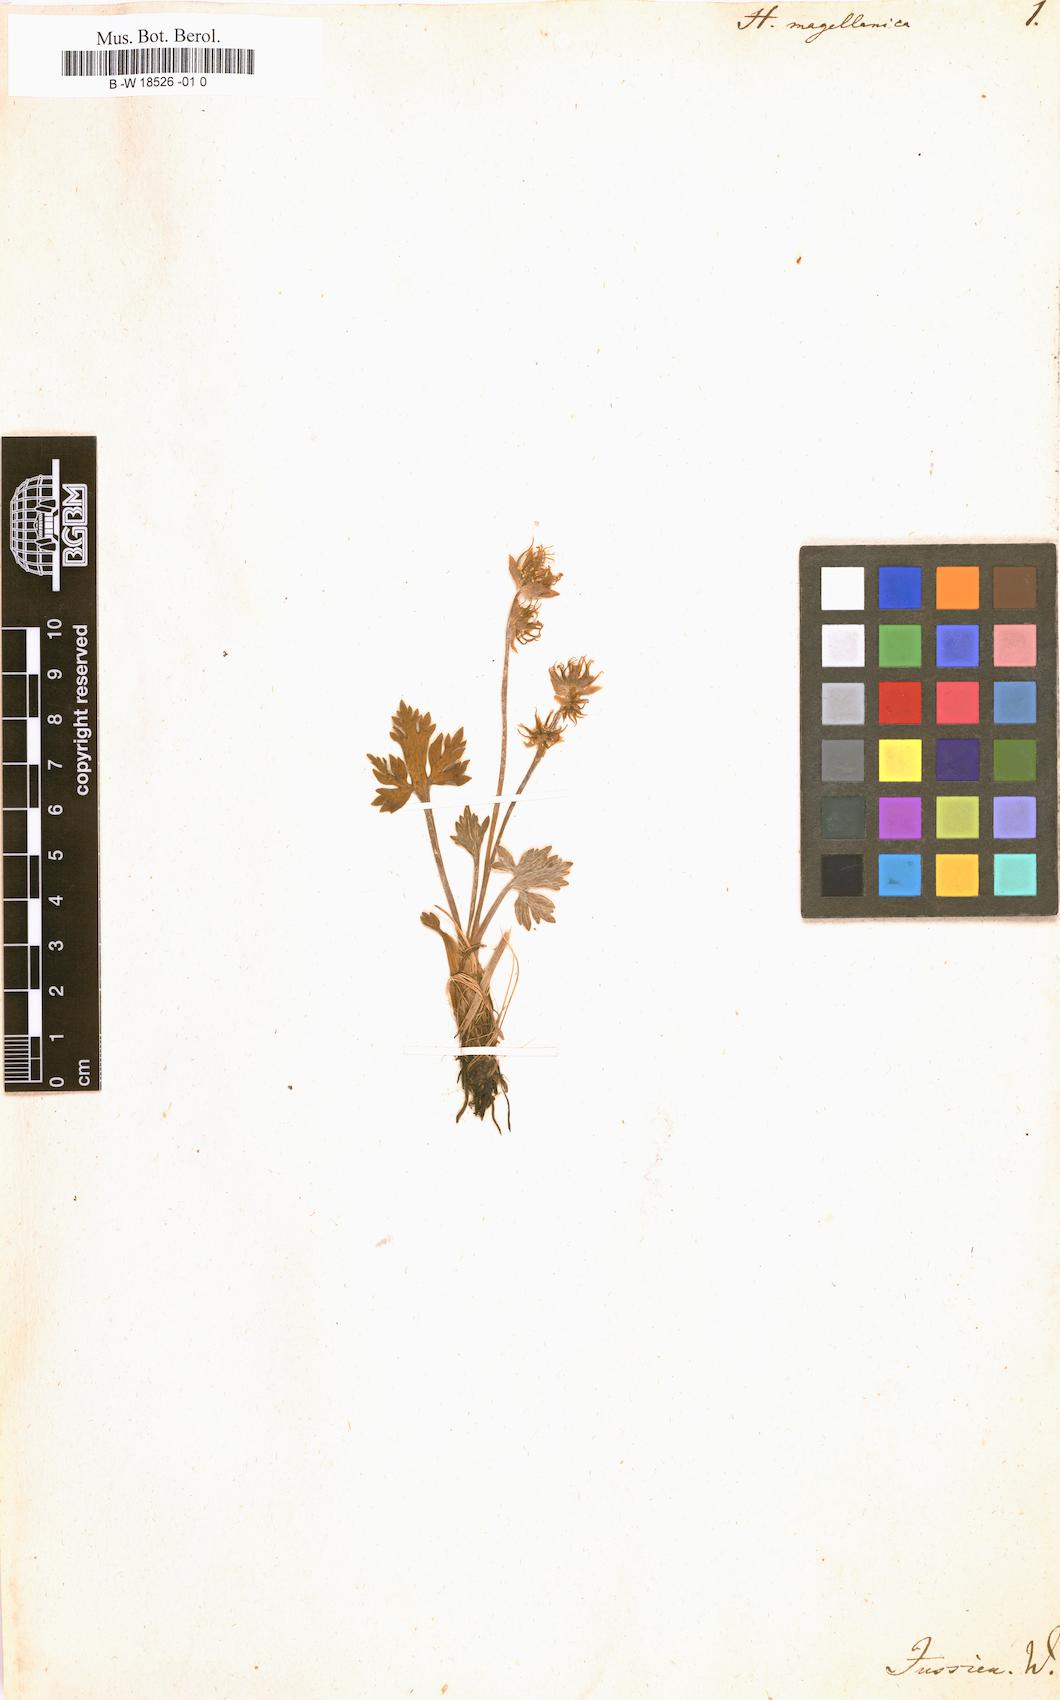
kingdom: Plantae
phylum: Tracheophyta
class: Magnoliopsida
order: Ranunculales
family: Ranunculaceae
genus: Hamadryas
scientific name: Hamadryas magellanica
